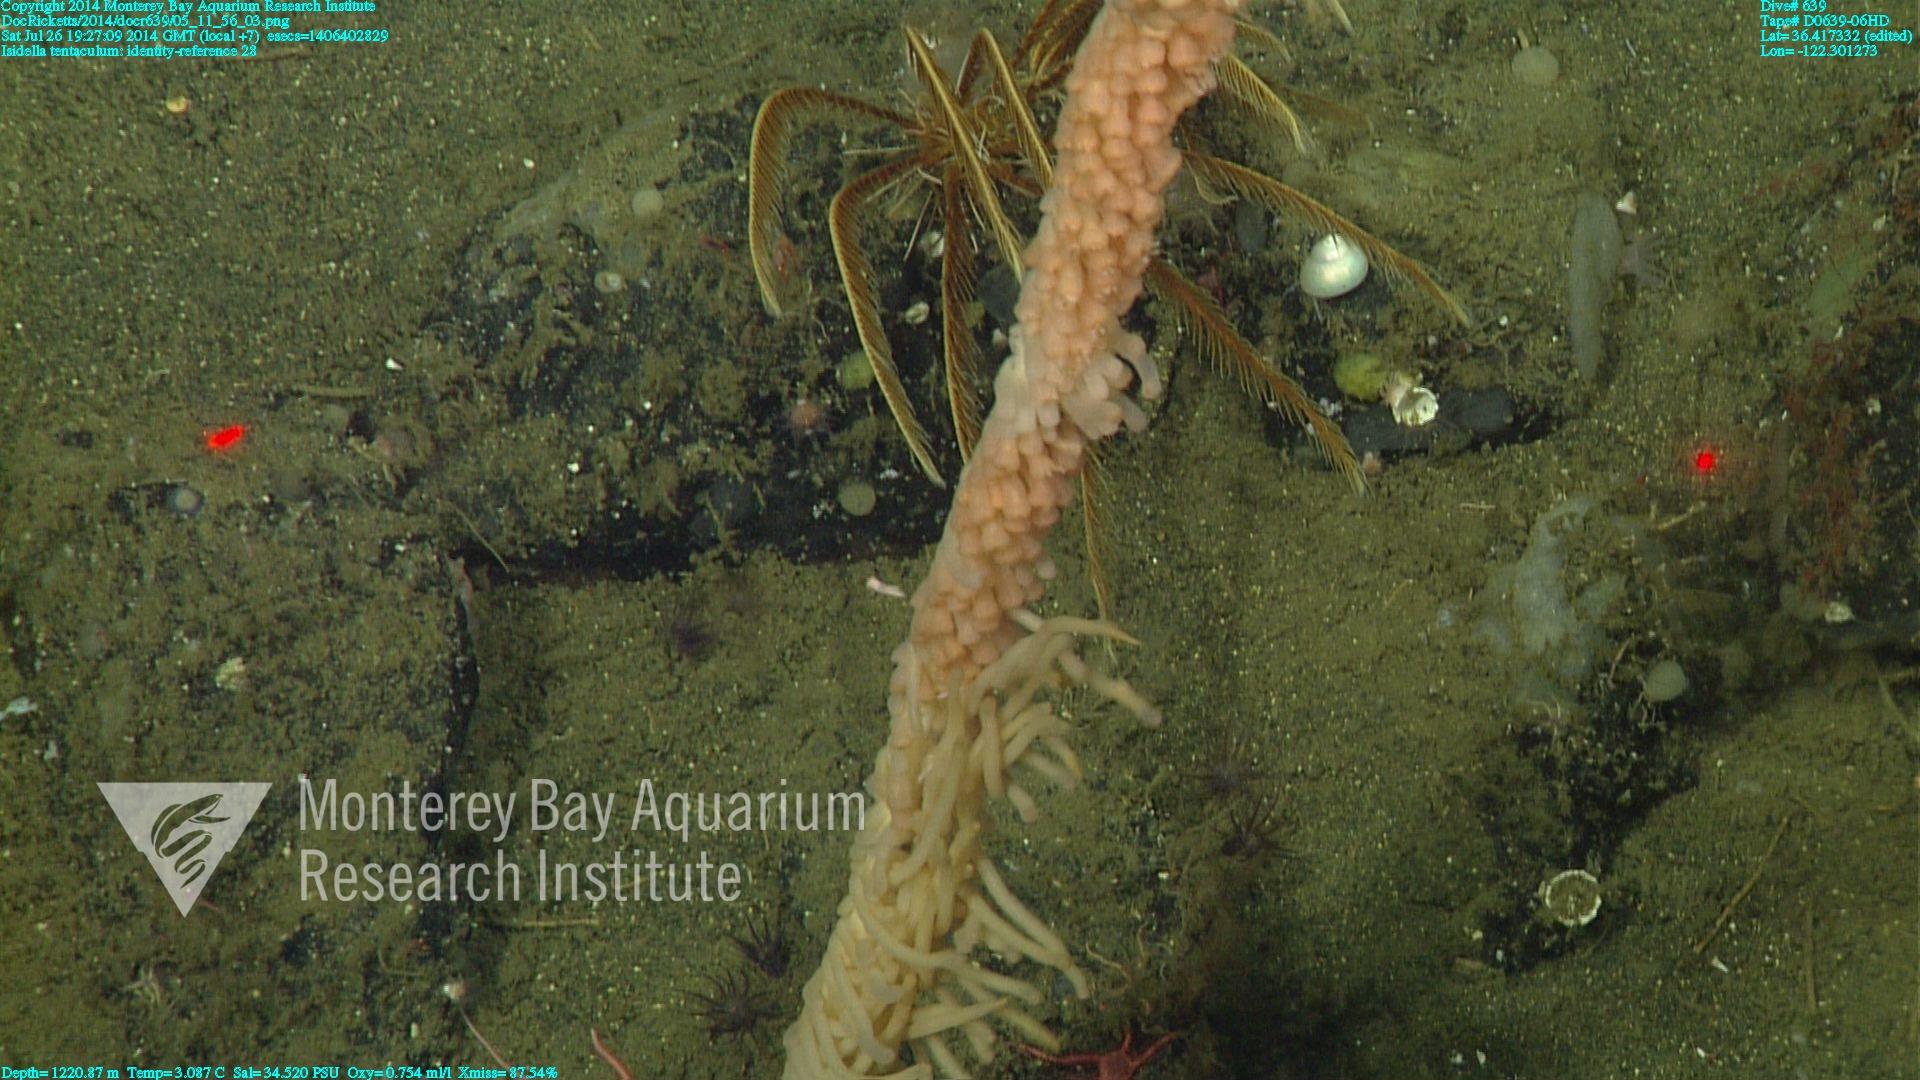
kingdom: Animalia
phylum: Cnidaria
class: Anthozoa
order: Scleralcyonacea
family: Keratoisididae
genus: Isidella
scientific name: Isidella tentaculum
